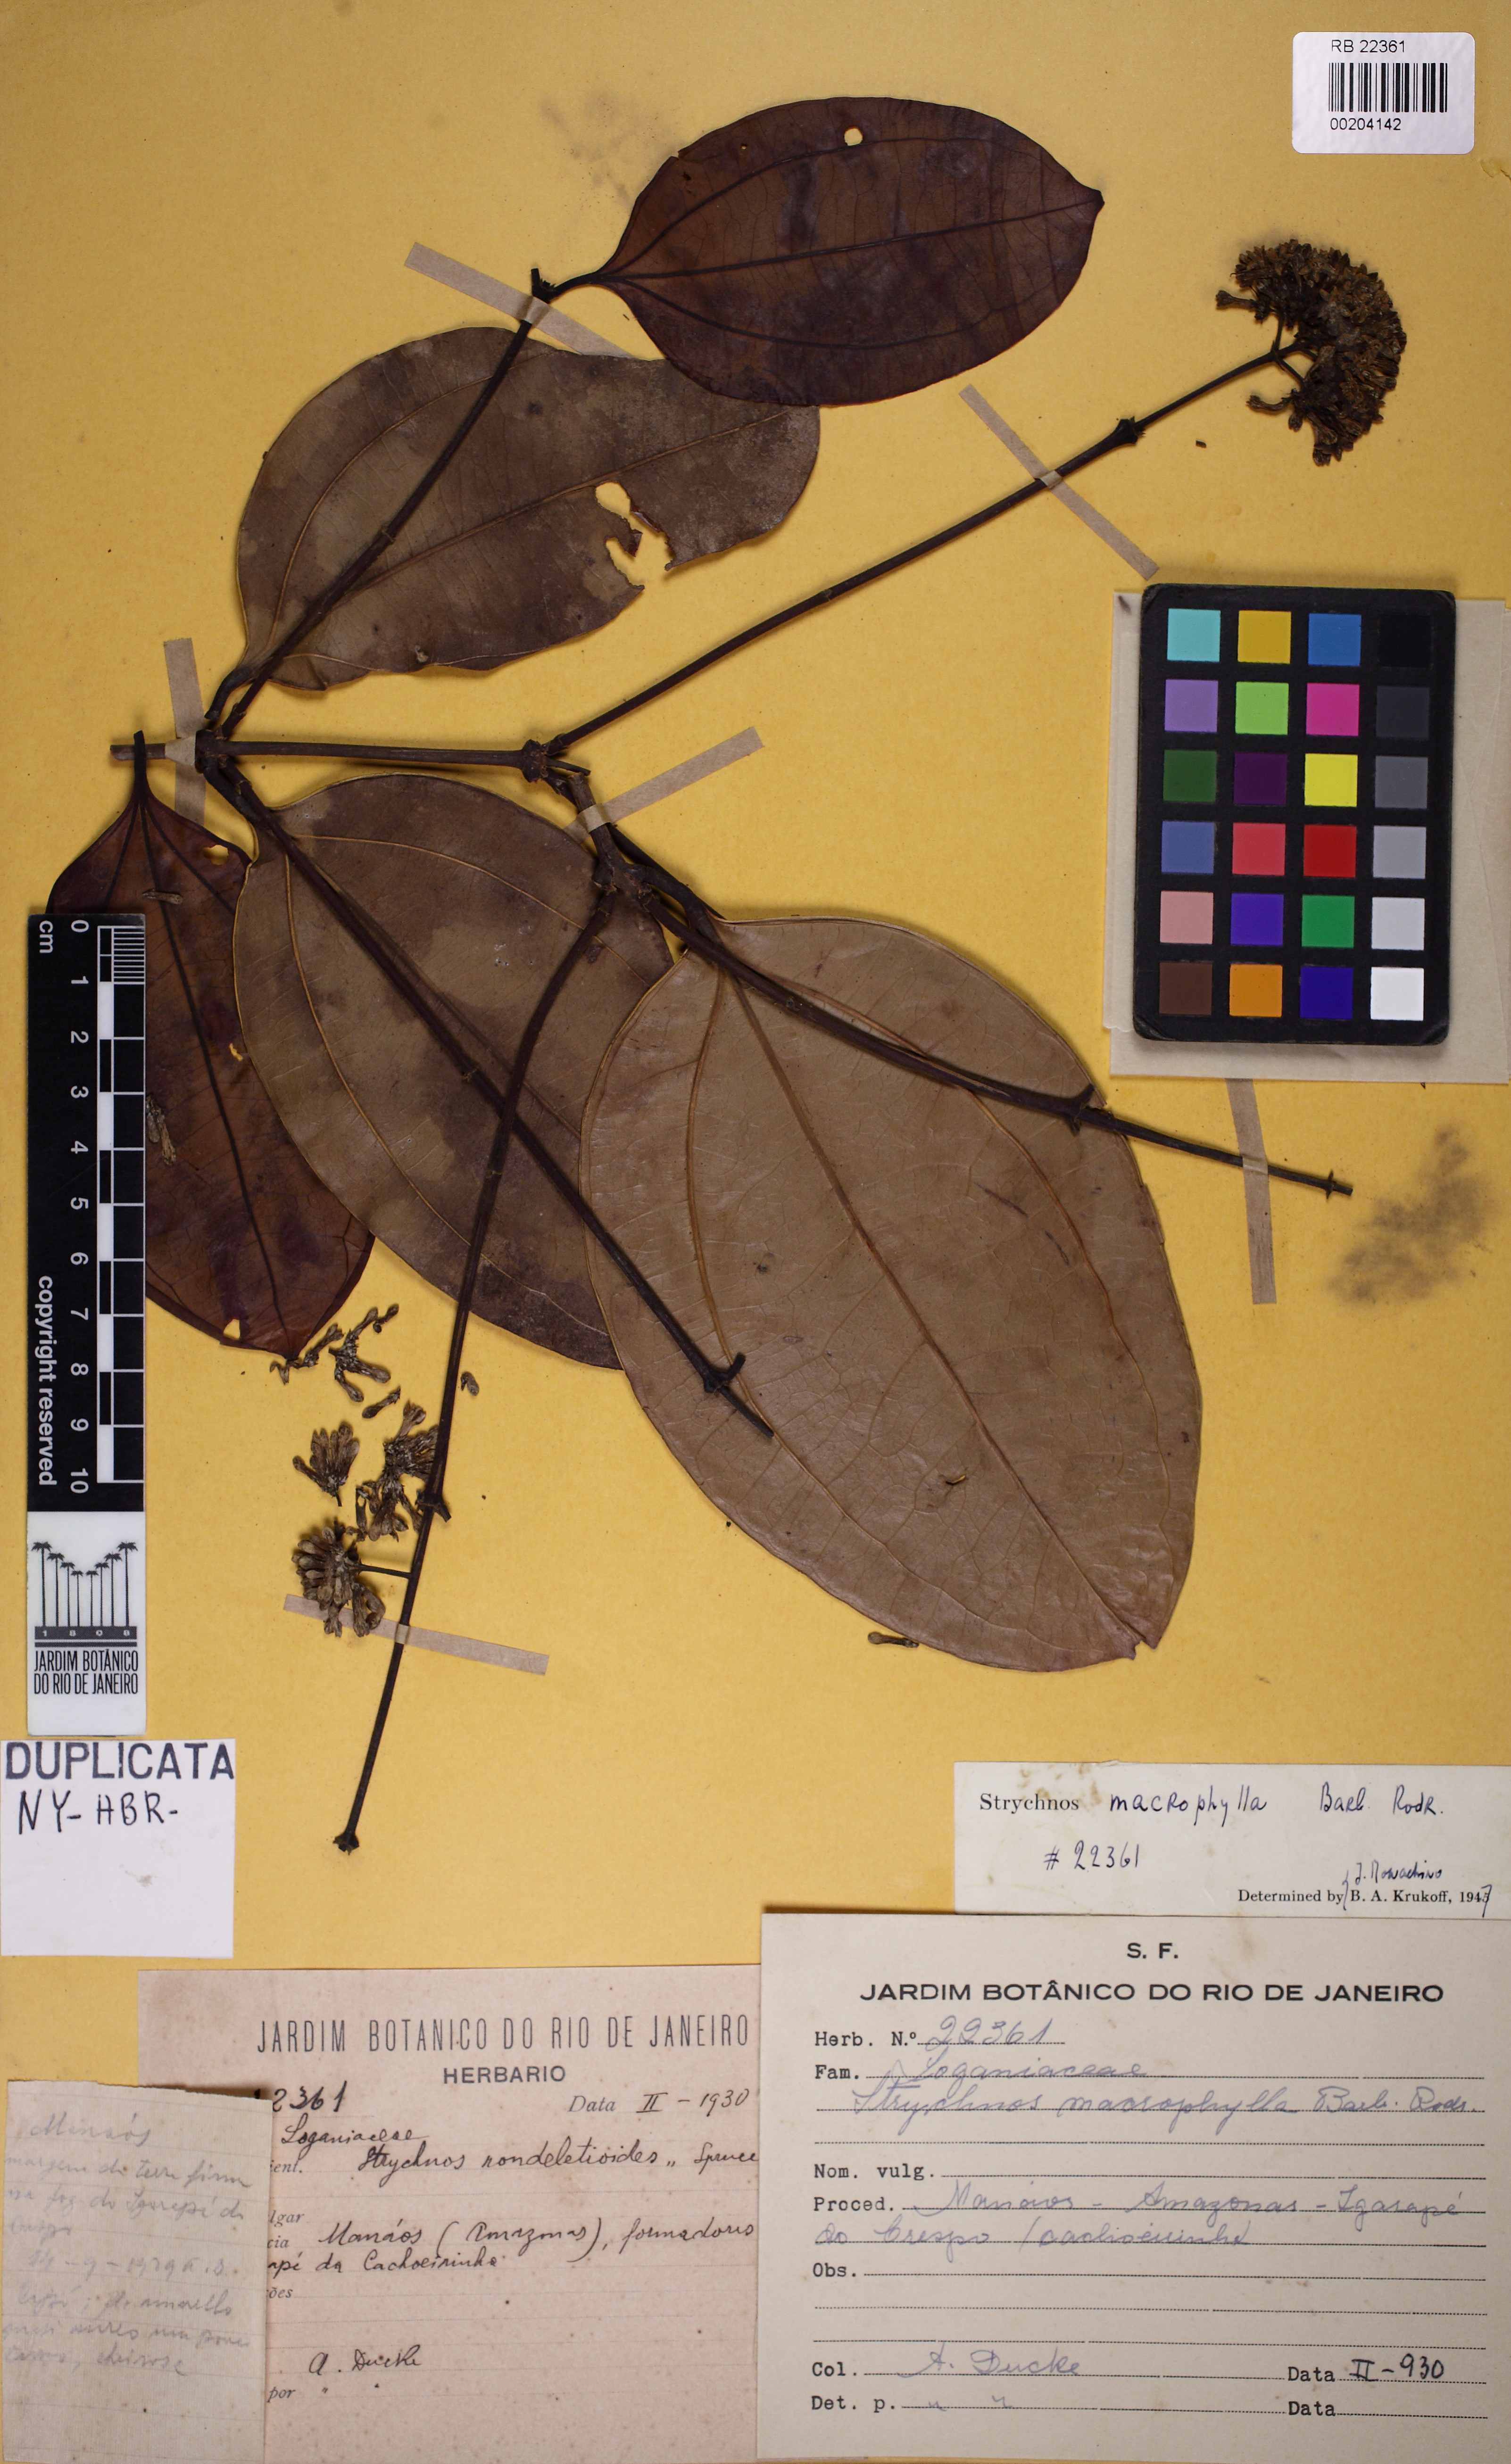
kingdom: Plantae
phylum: Tracheophyta
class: Magnoliopsida
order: Gentianales
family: Loganiaceae
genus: Strychnos
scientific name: Strychnos rondeletioides
